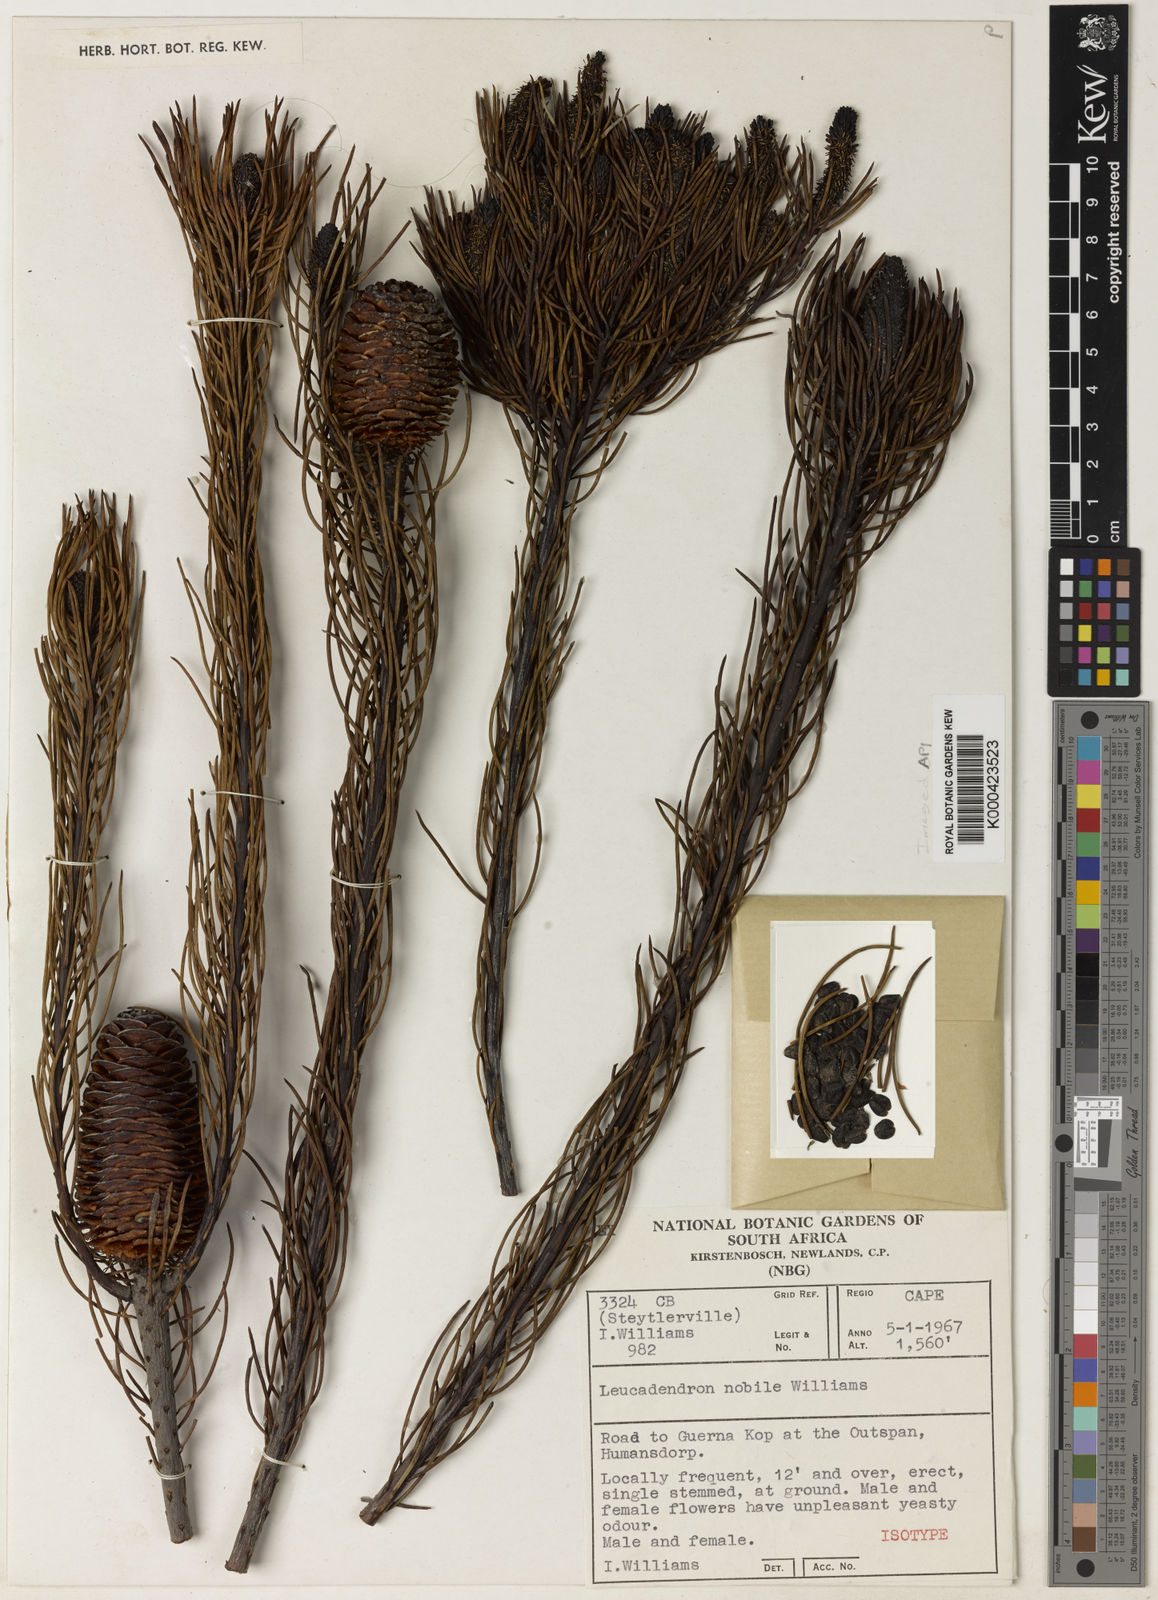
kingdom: Plantae
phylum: Tracheophyta
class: Magnoliopsida
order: Proteales
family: Proteaceae
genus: Leucadendron
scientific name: Leucadendron nobile
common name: Karoo conebush
